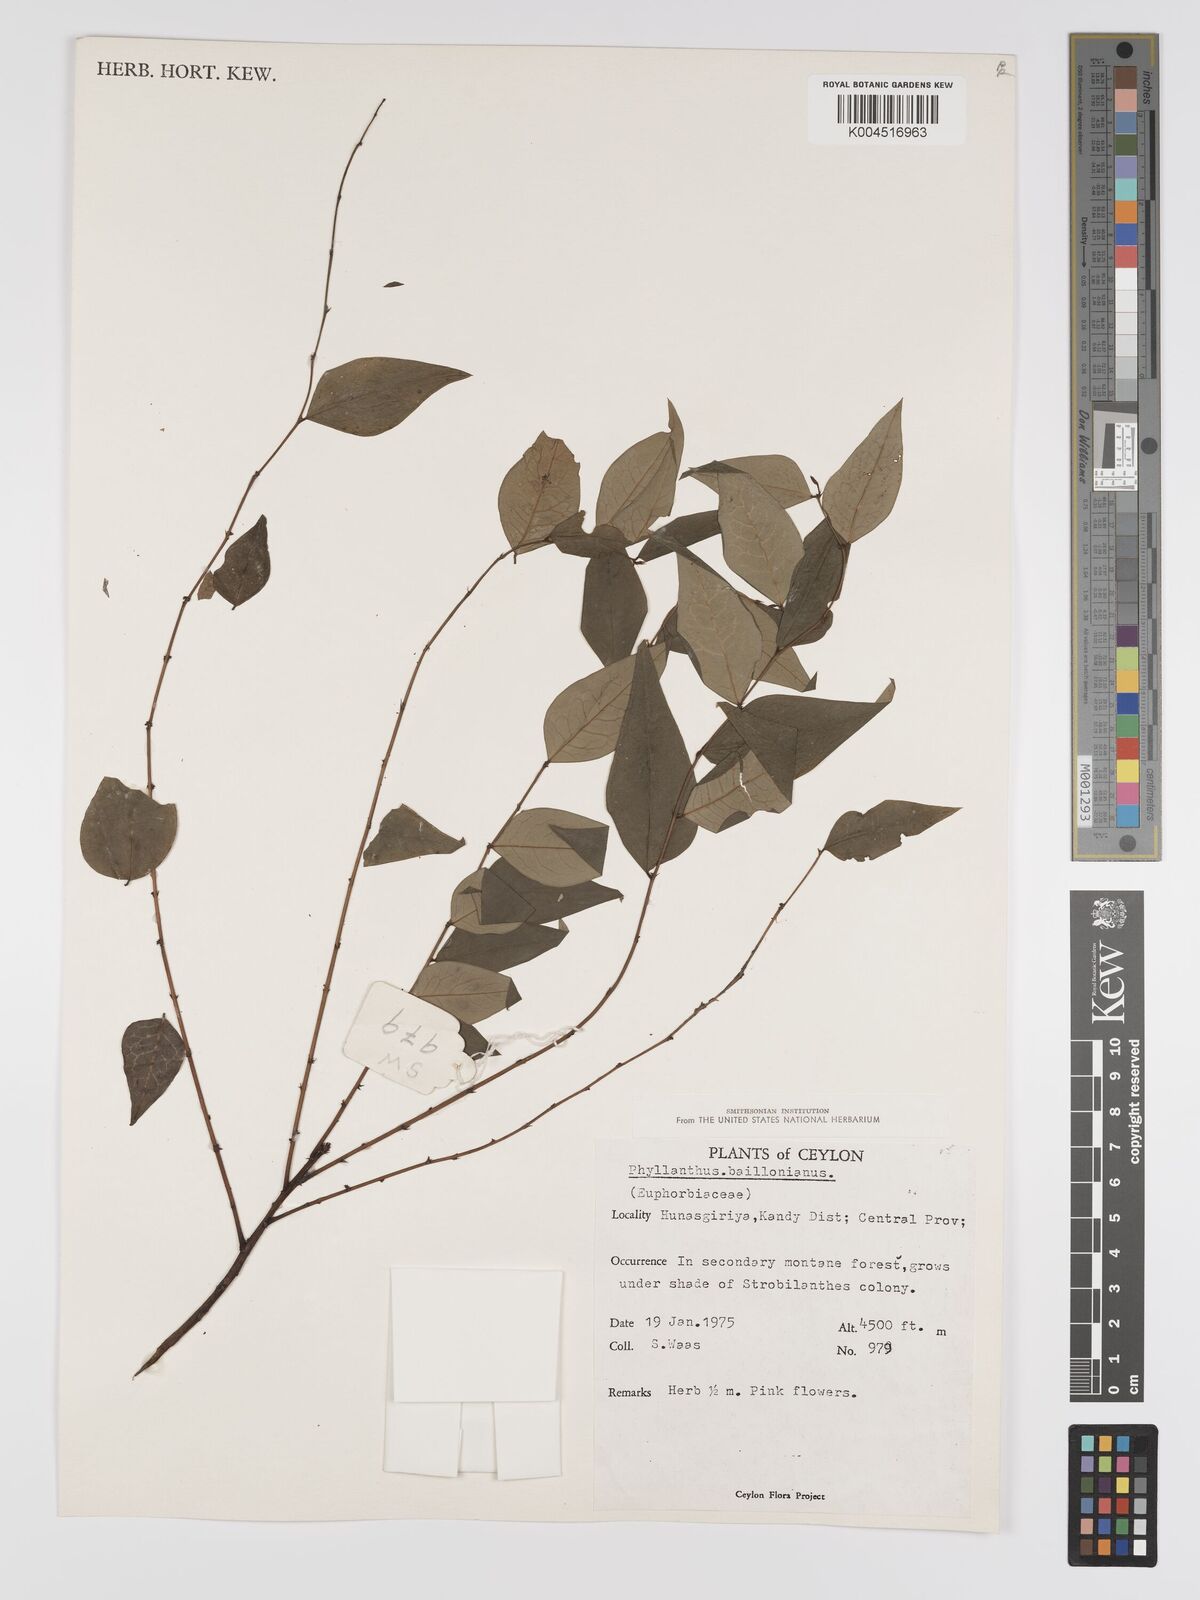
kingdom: Plantae
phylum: Tracheophyta
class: Magnoliopsida
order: Malpighiales
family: Phyllanthaceae
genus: Phyllanthus
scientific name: Phyllanthus baillonianus
